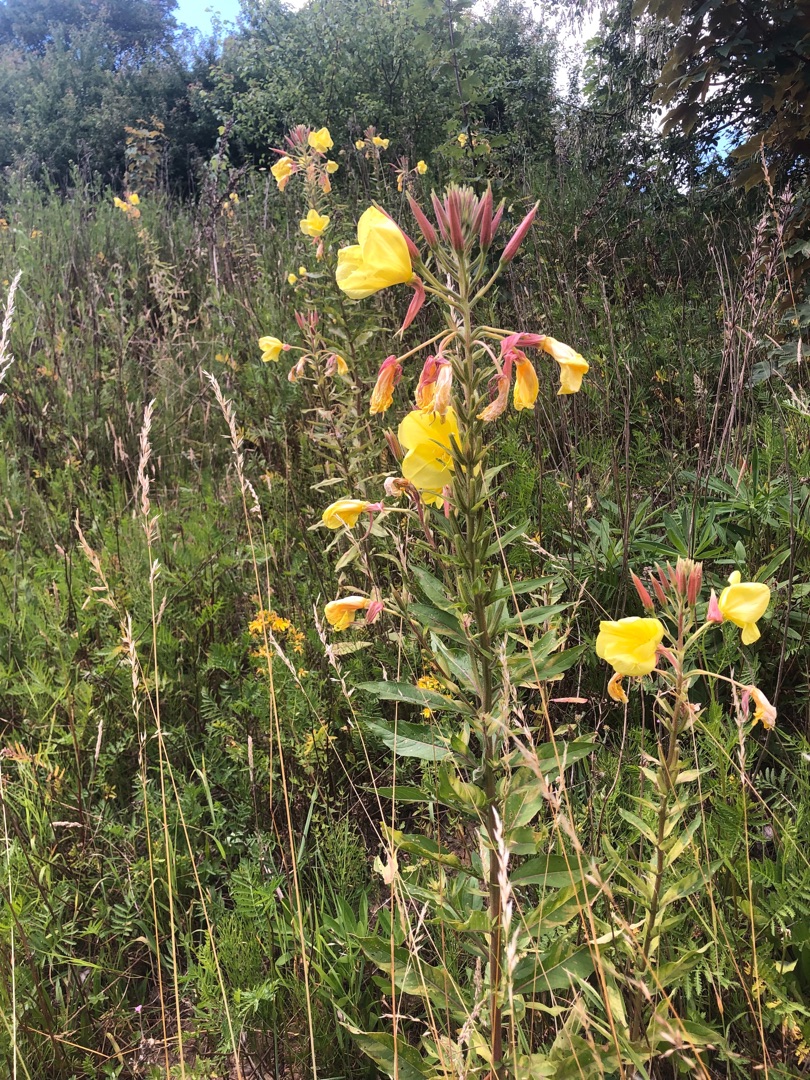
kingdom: Plantae
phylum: Tracheophyta
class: Magnoliopsida
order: Myrtales
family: Onagraceae
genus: Oenothera
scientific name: Oenothera glazioviana
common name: Kæmpe-natlys
